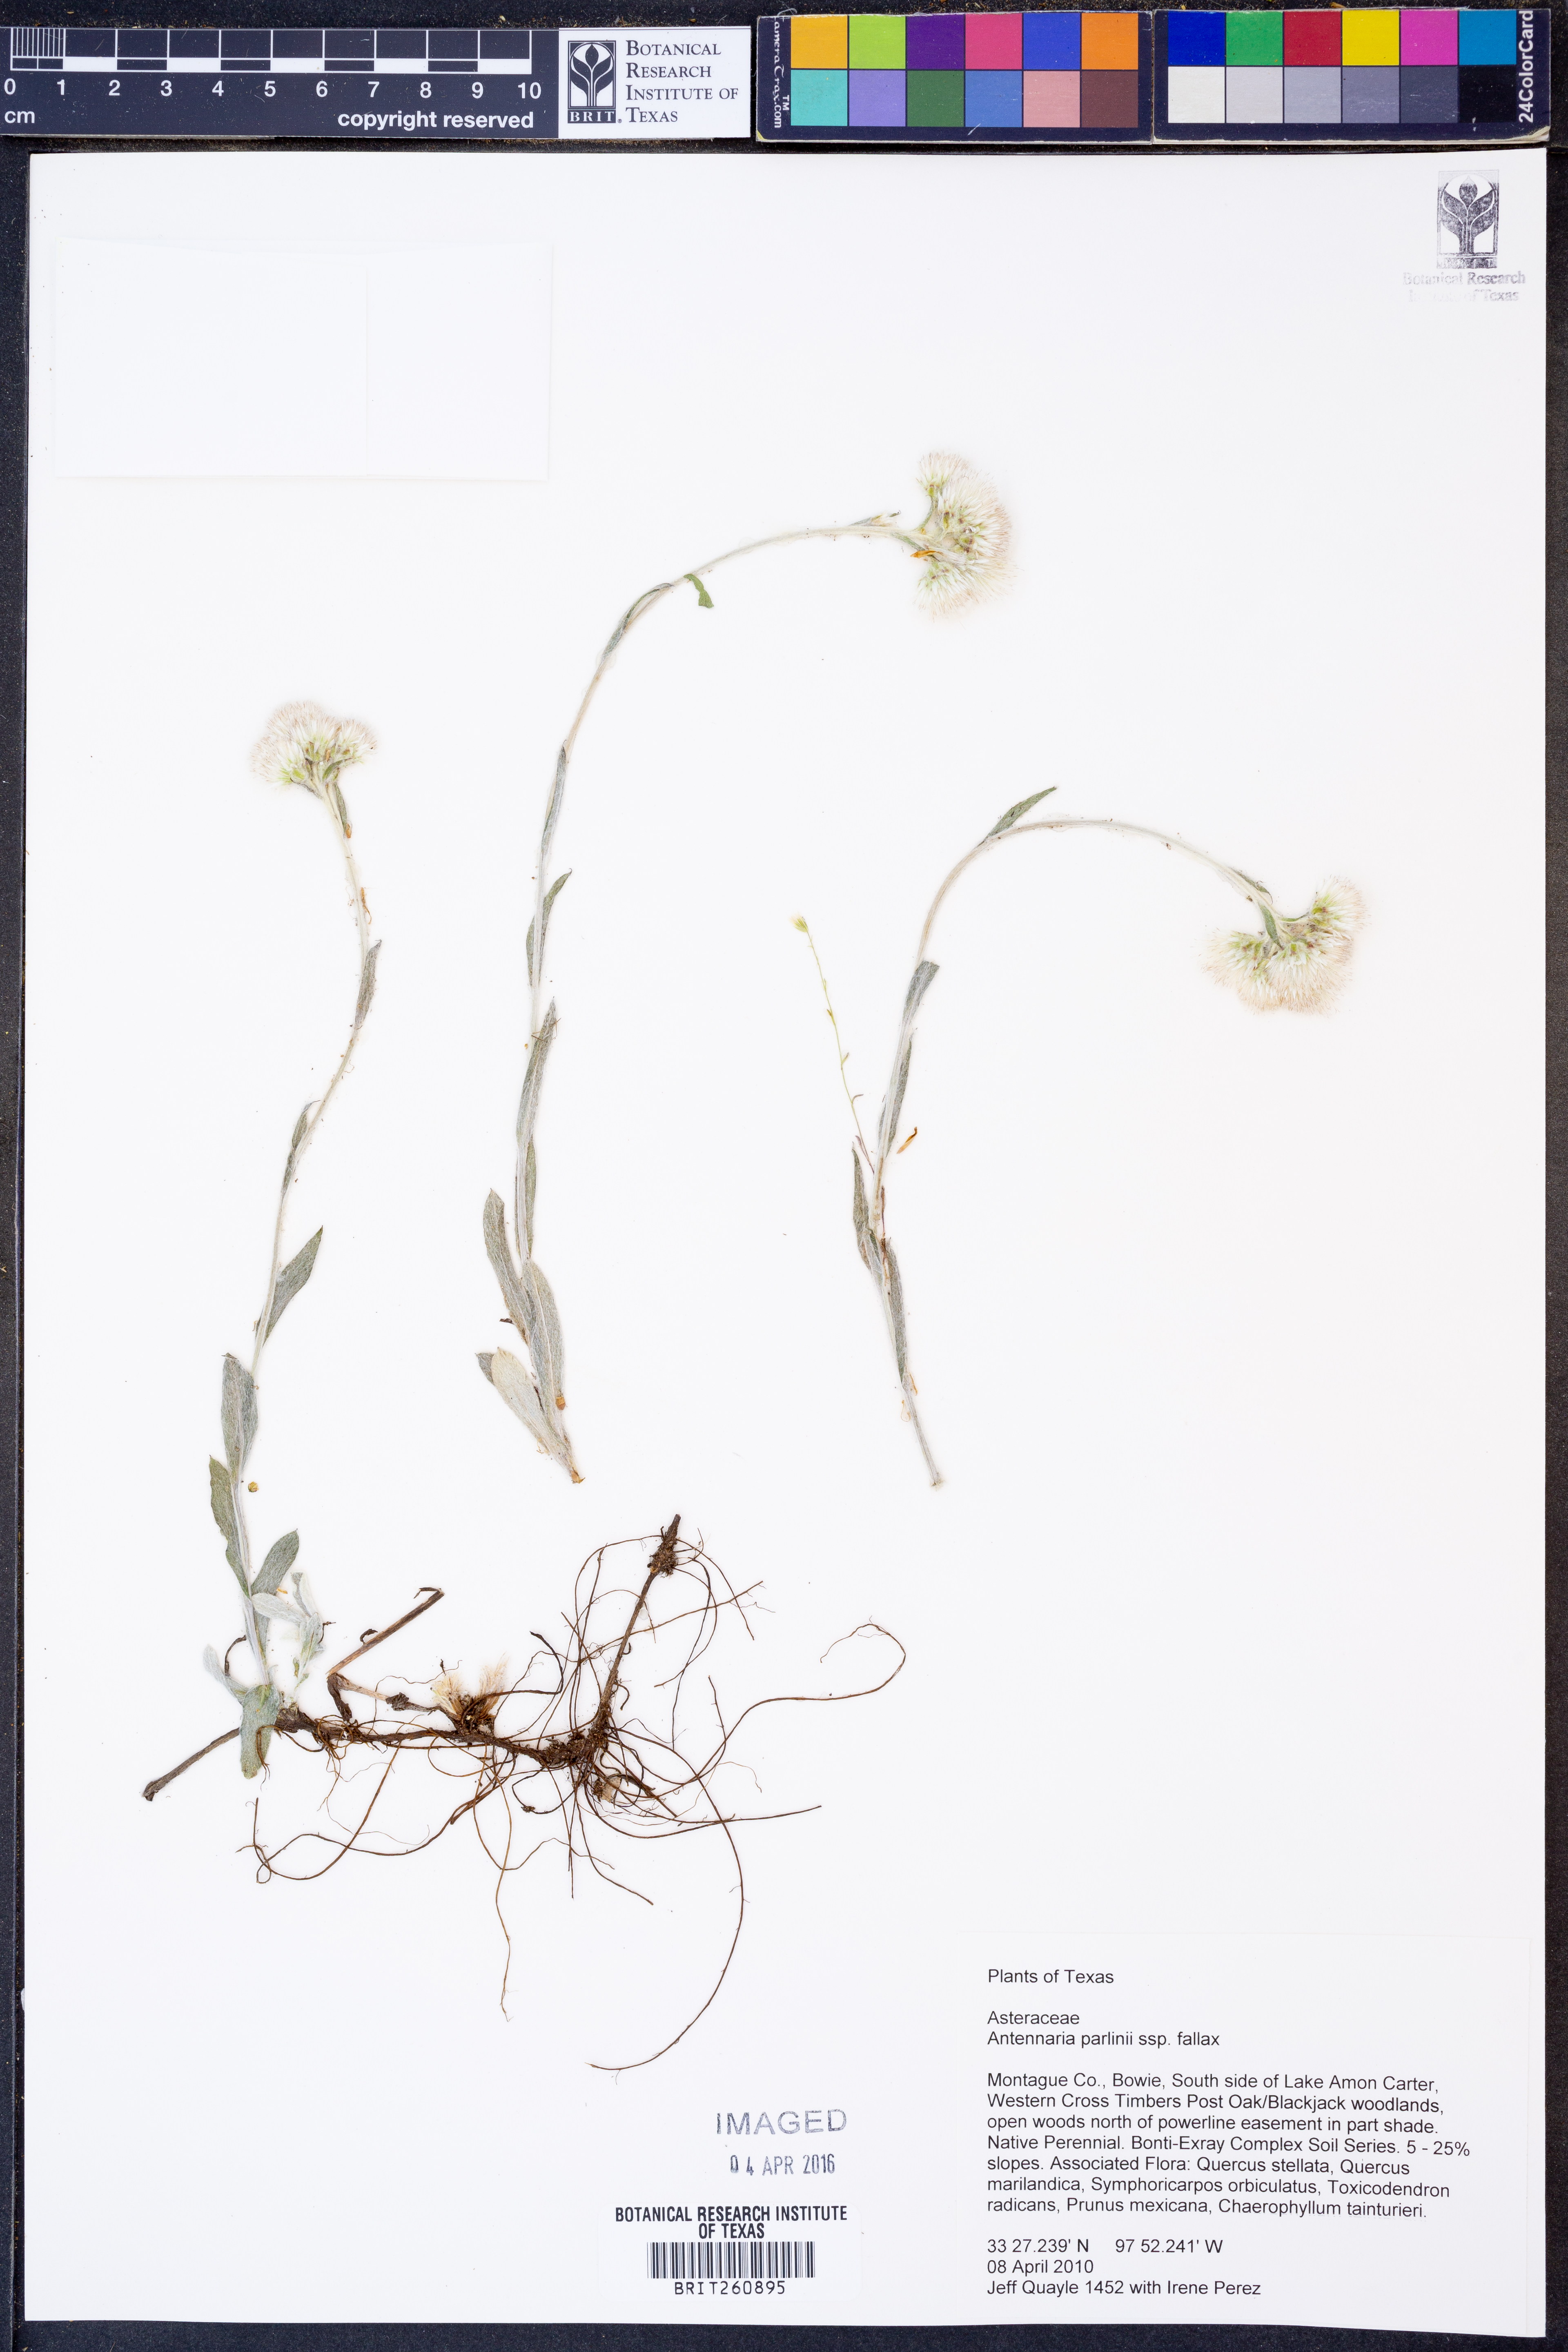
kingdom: Plantae
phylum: Tracheophyta
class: Magnoliopsida
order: Asterales
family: Asteraceae
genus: Antennaria
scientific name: Antennaria parlinii
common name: Parlin's pussytoes
